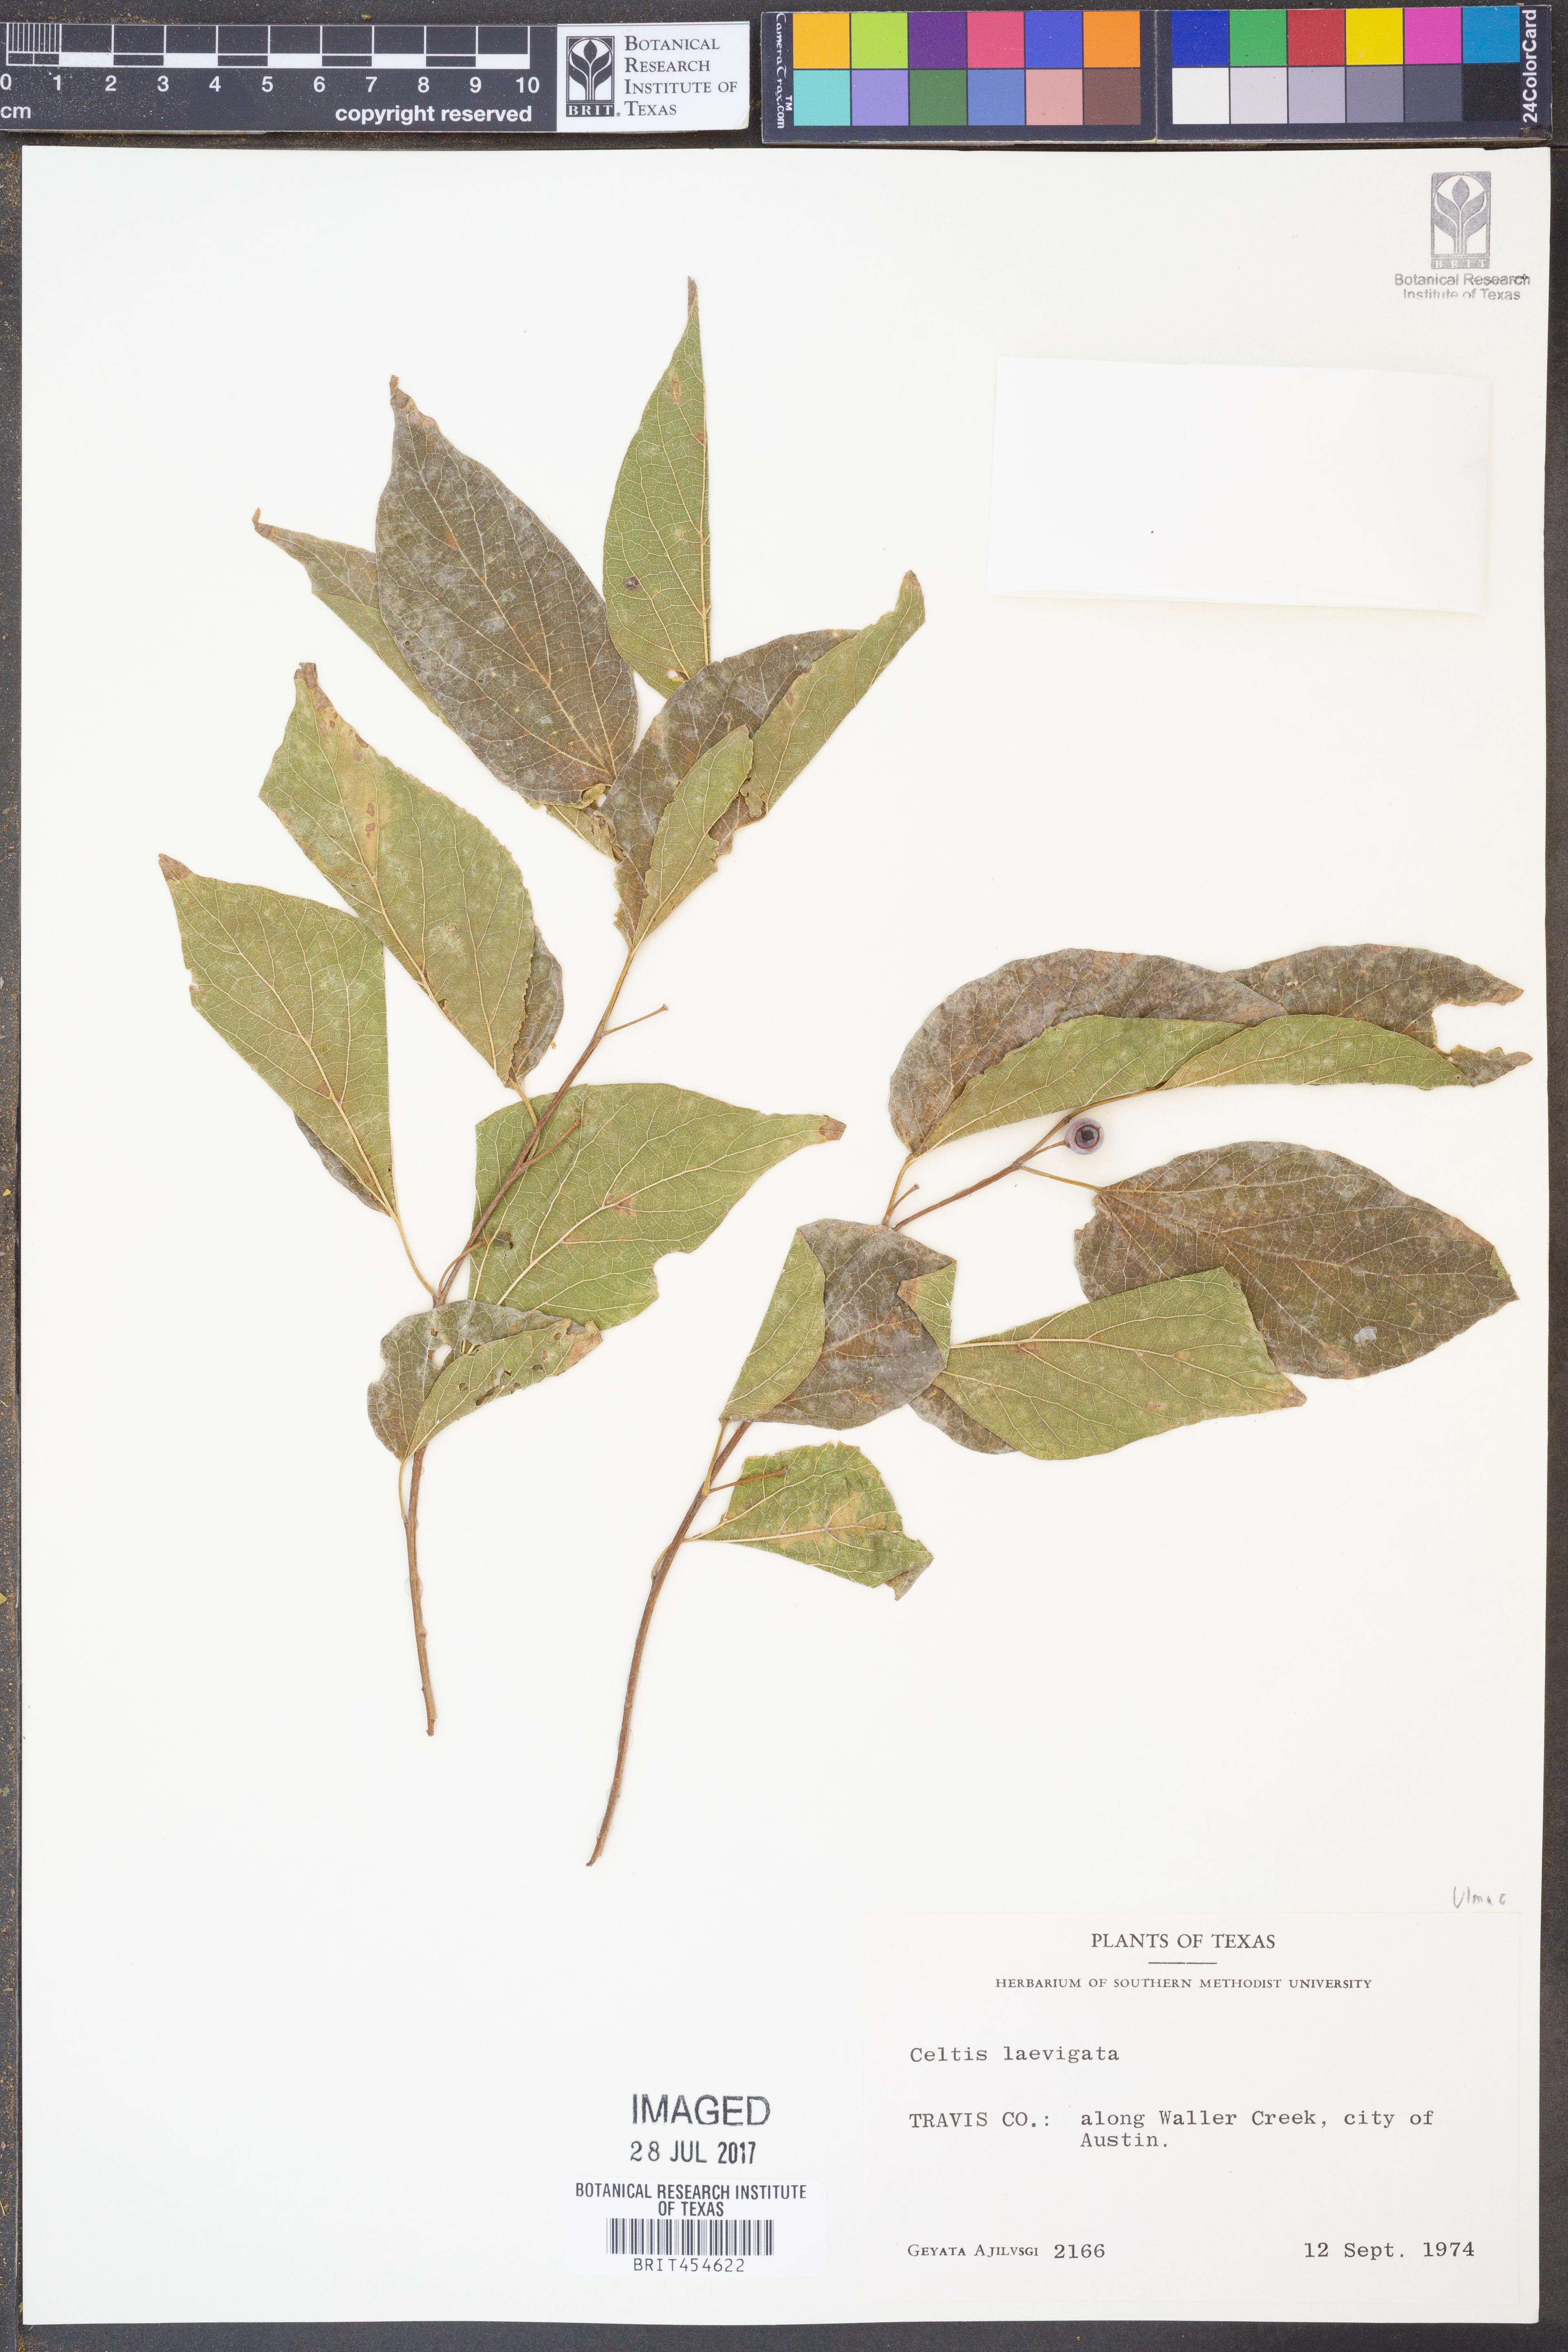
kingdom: Plantae
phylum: Tracheophyta
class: Magnoliopsida
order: Rosales
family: Cannabaceae
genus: Celtis
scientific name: Celtis laevigata
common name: Sugarberry
